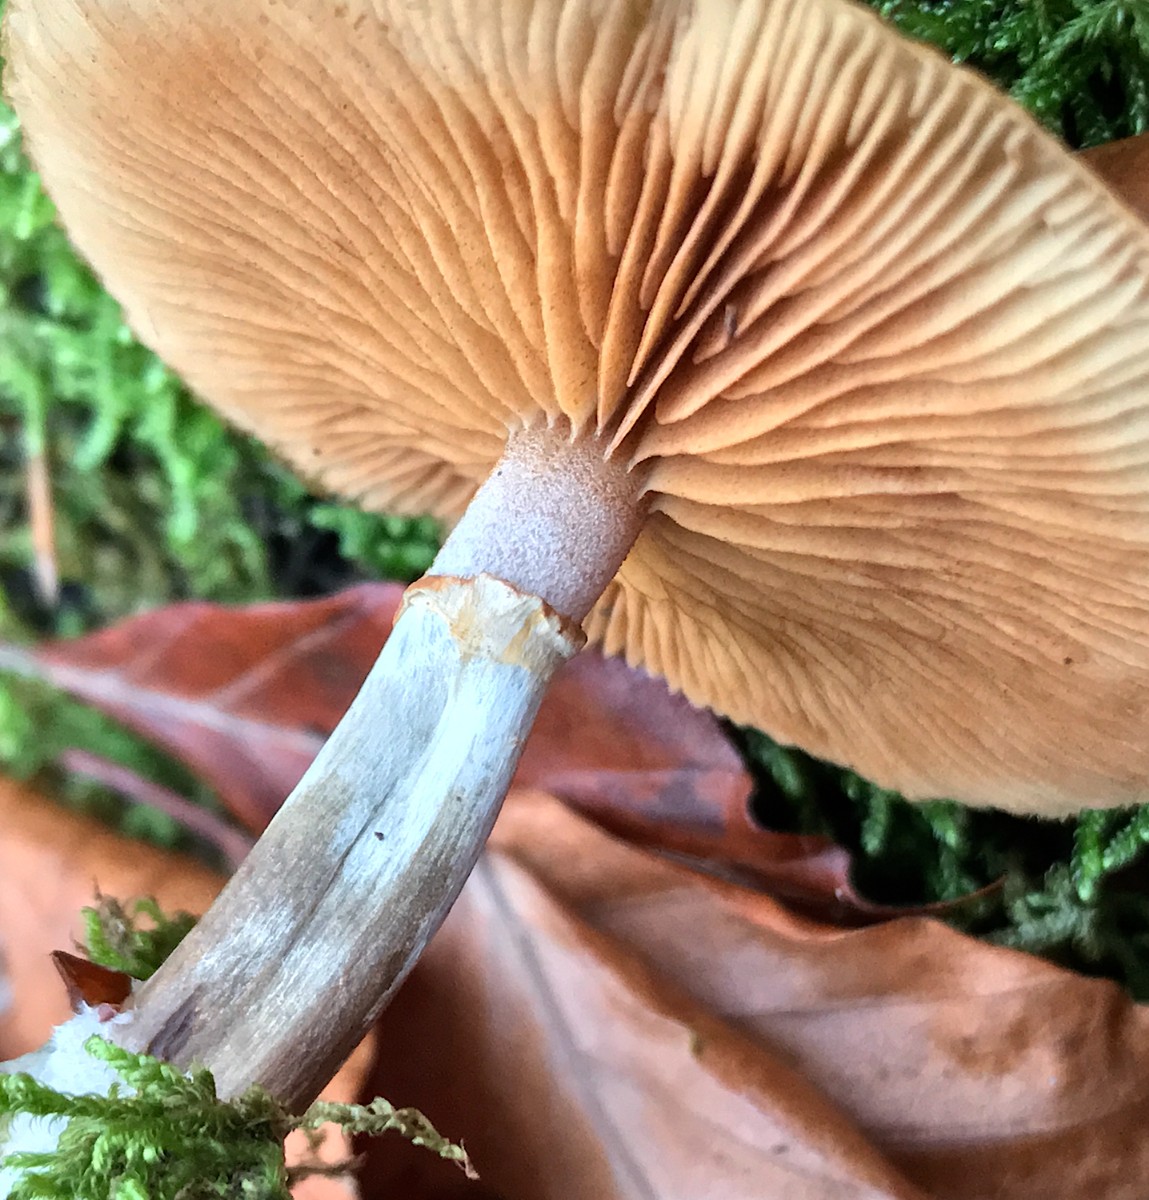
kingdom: Fungi
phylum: Basidiomycota
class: Agaricomycetes
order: Agaricales
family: Hymenogastraceae
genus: Galerina
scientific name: Galerina marginata
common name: randbæltet hjelmhat
